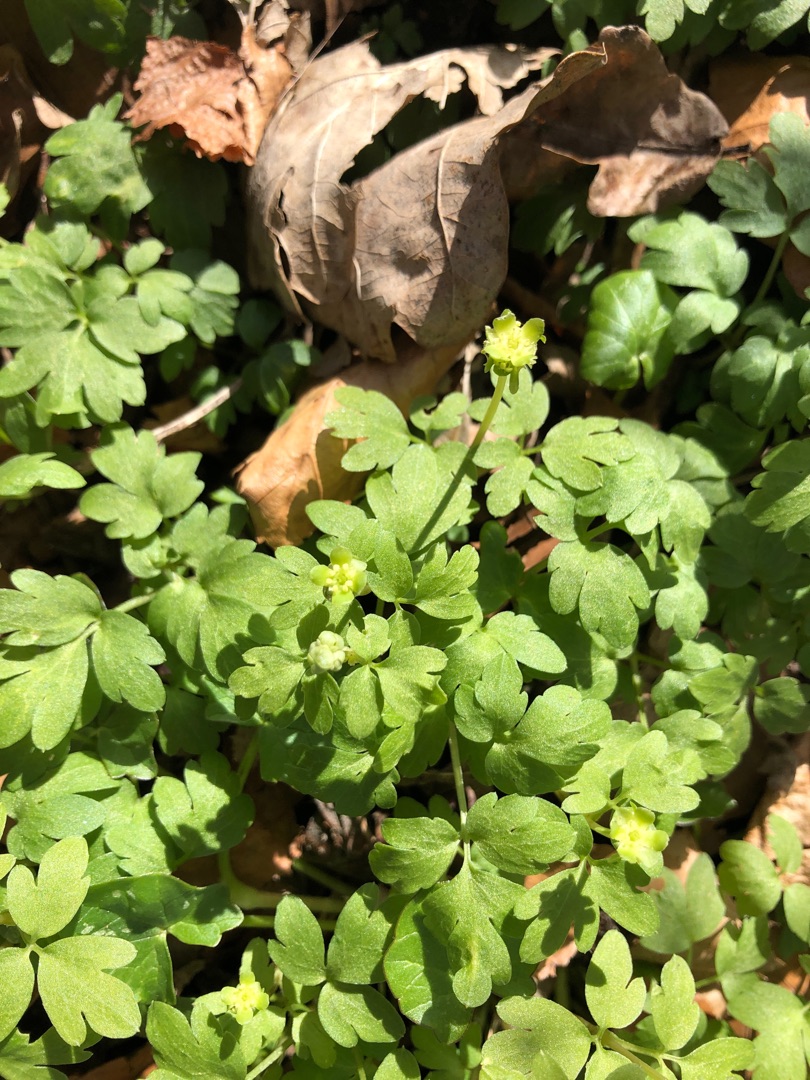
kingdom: Plantae
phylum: Tracheophyta
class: Magnoliopsida
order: Dipsacales
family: Viburnaceae
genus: Adoxa
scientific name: Adoxa moschatellina
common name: Desmerurt
